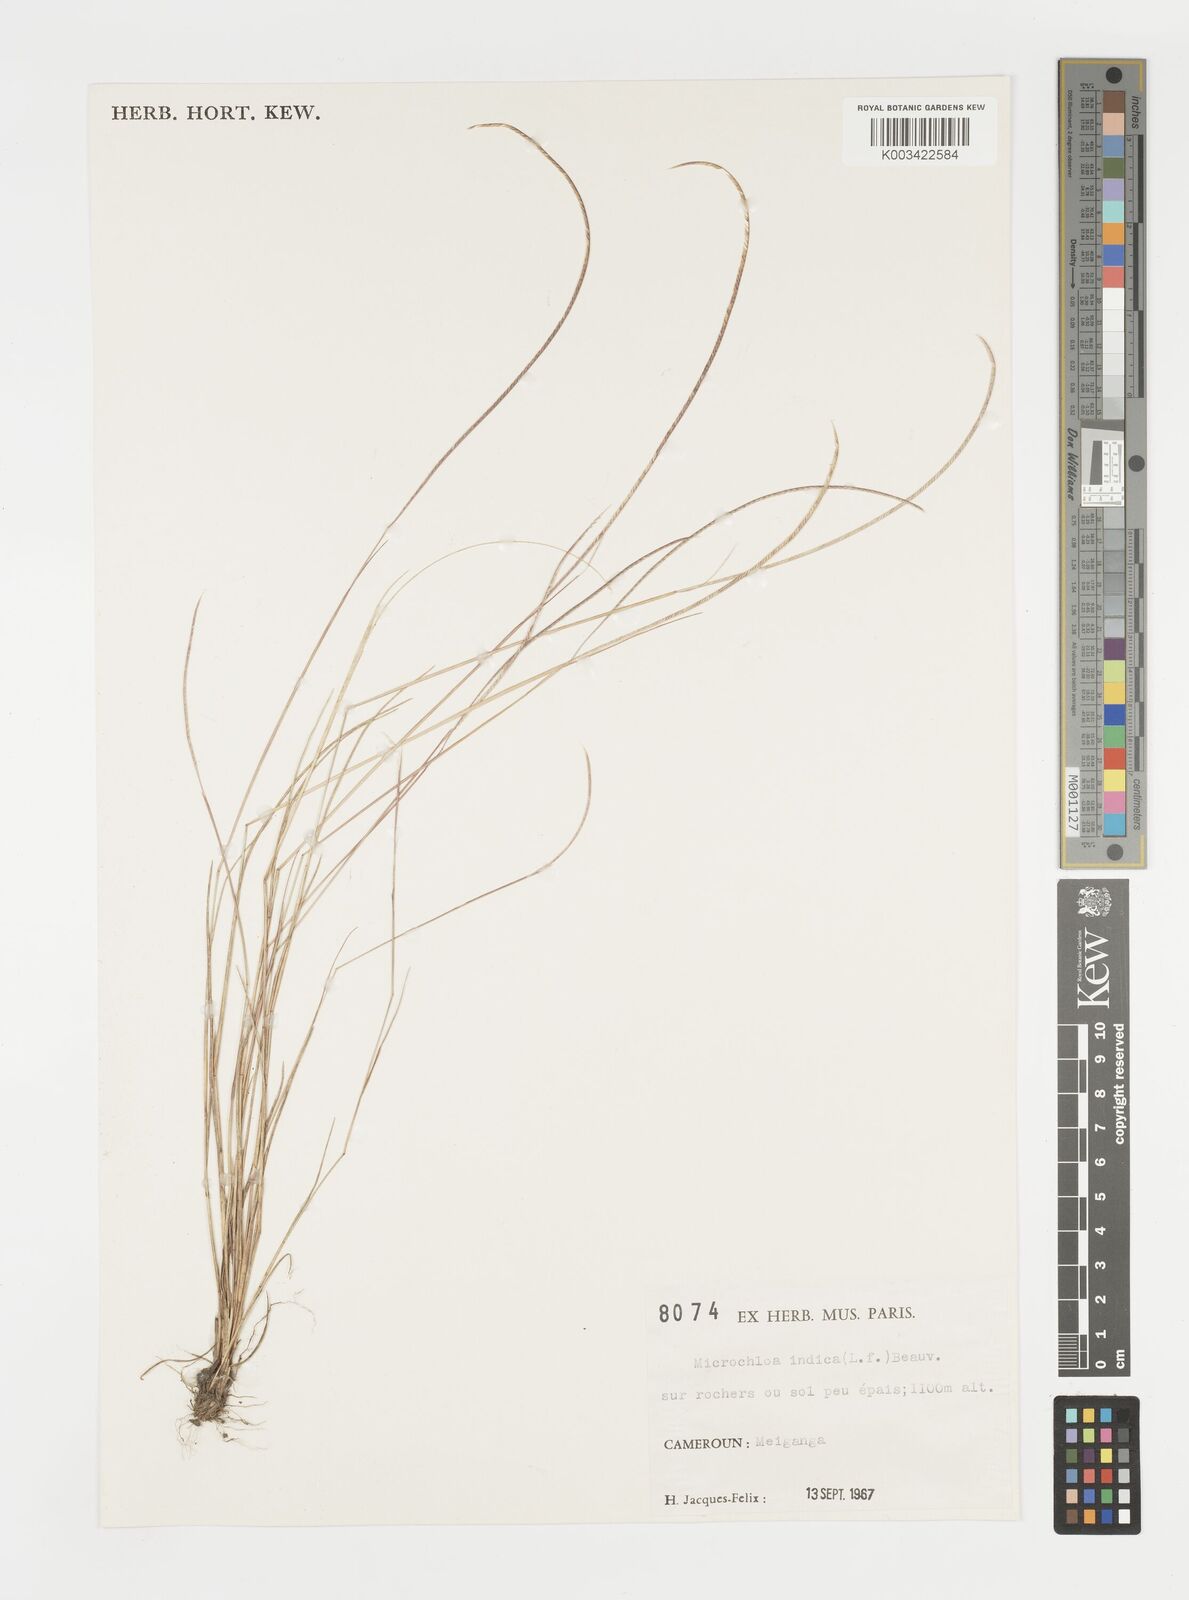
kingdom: Plantae
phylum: Tracheophyta
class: Liliopsida
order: Poales
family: Poaceae
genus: Microchloa
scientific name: Microchloa indica
